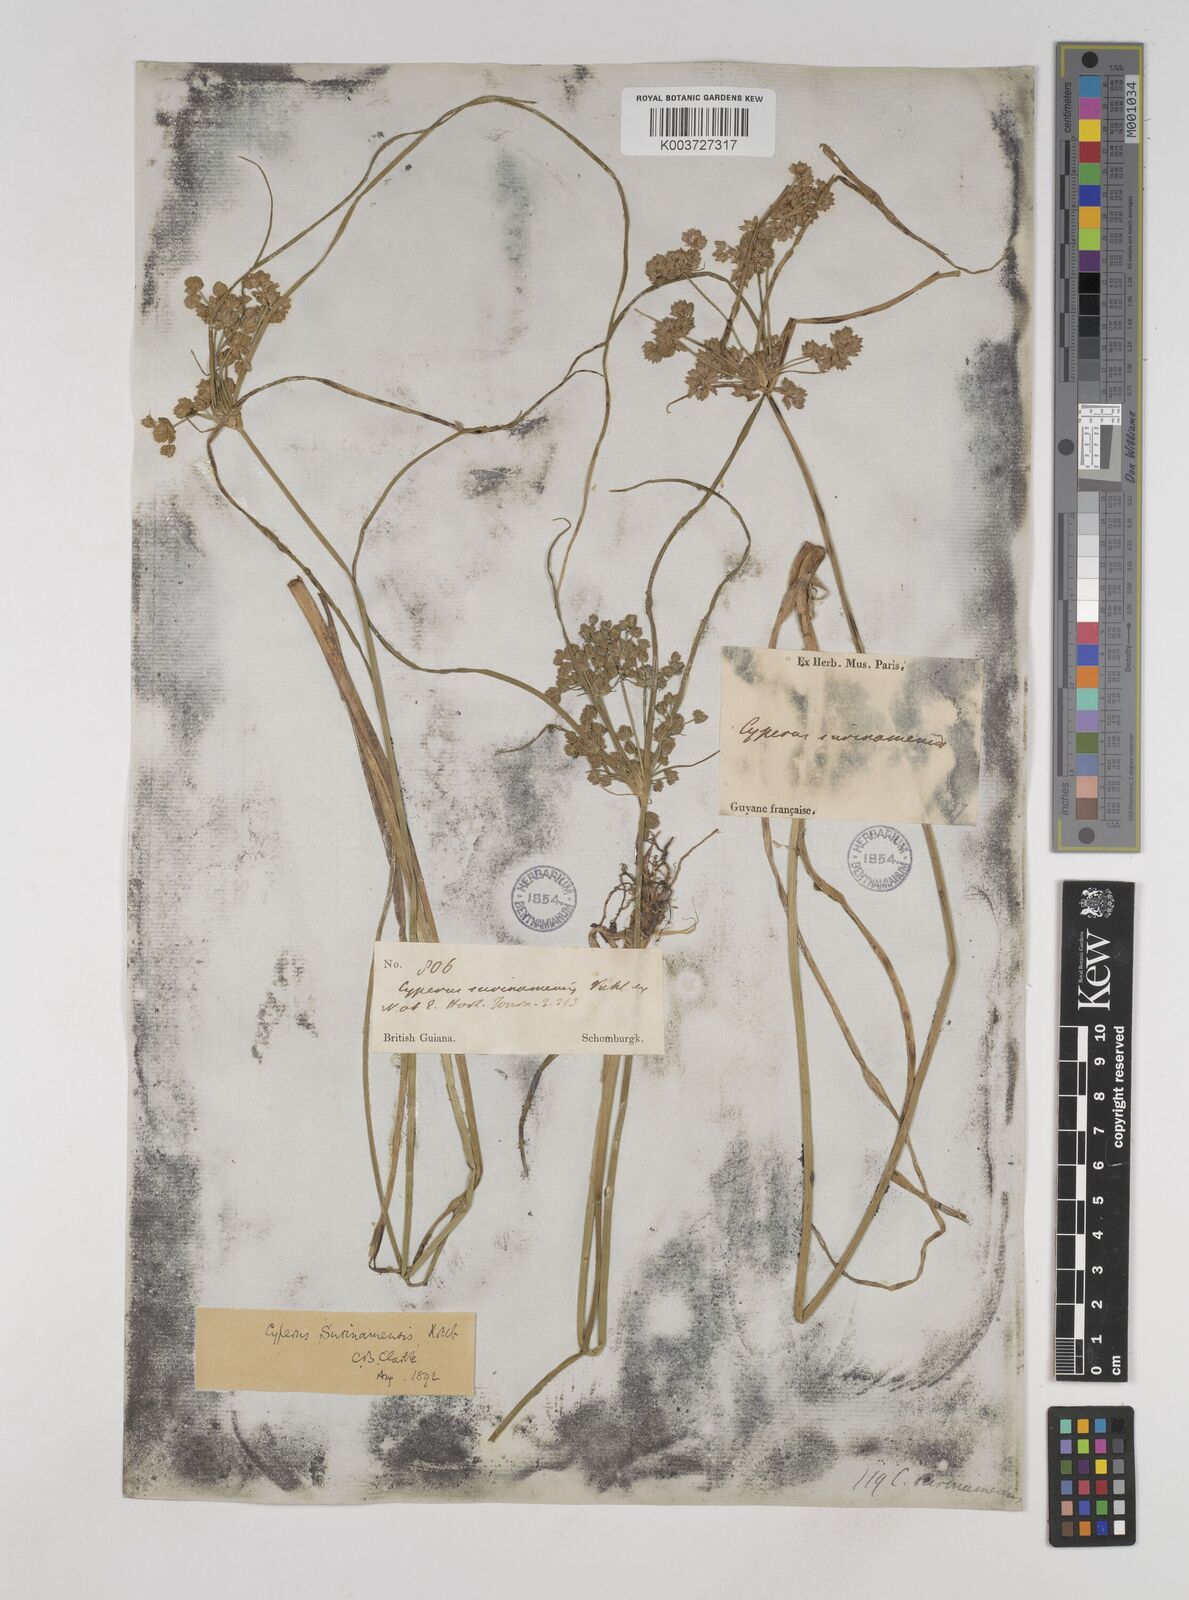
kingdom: Plantae
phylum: Tracheophyta
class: Liliopsida
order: Poales
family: Cyperaceae
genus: Cyperus
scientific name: Cyperus surinamensis
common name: Tropical flat sedge
